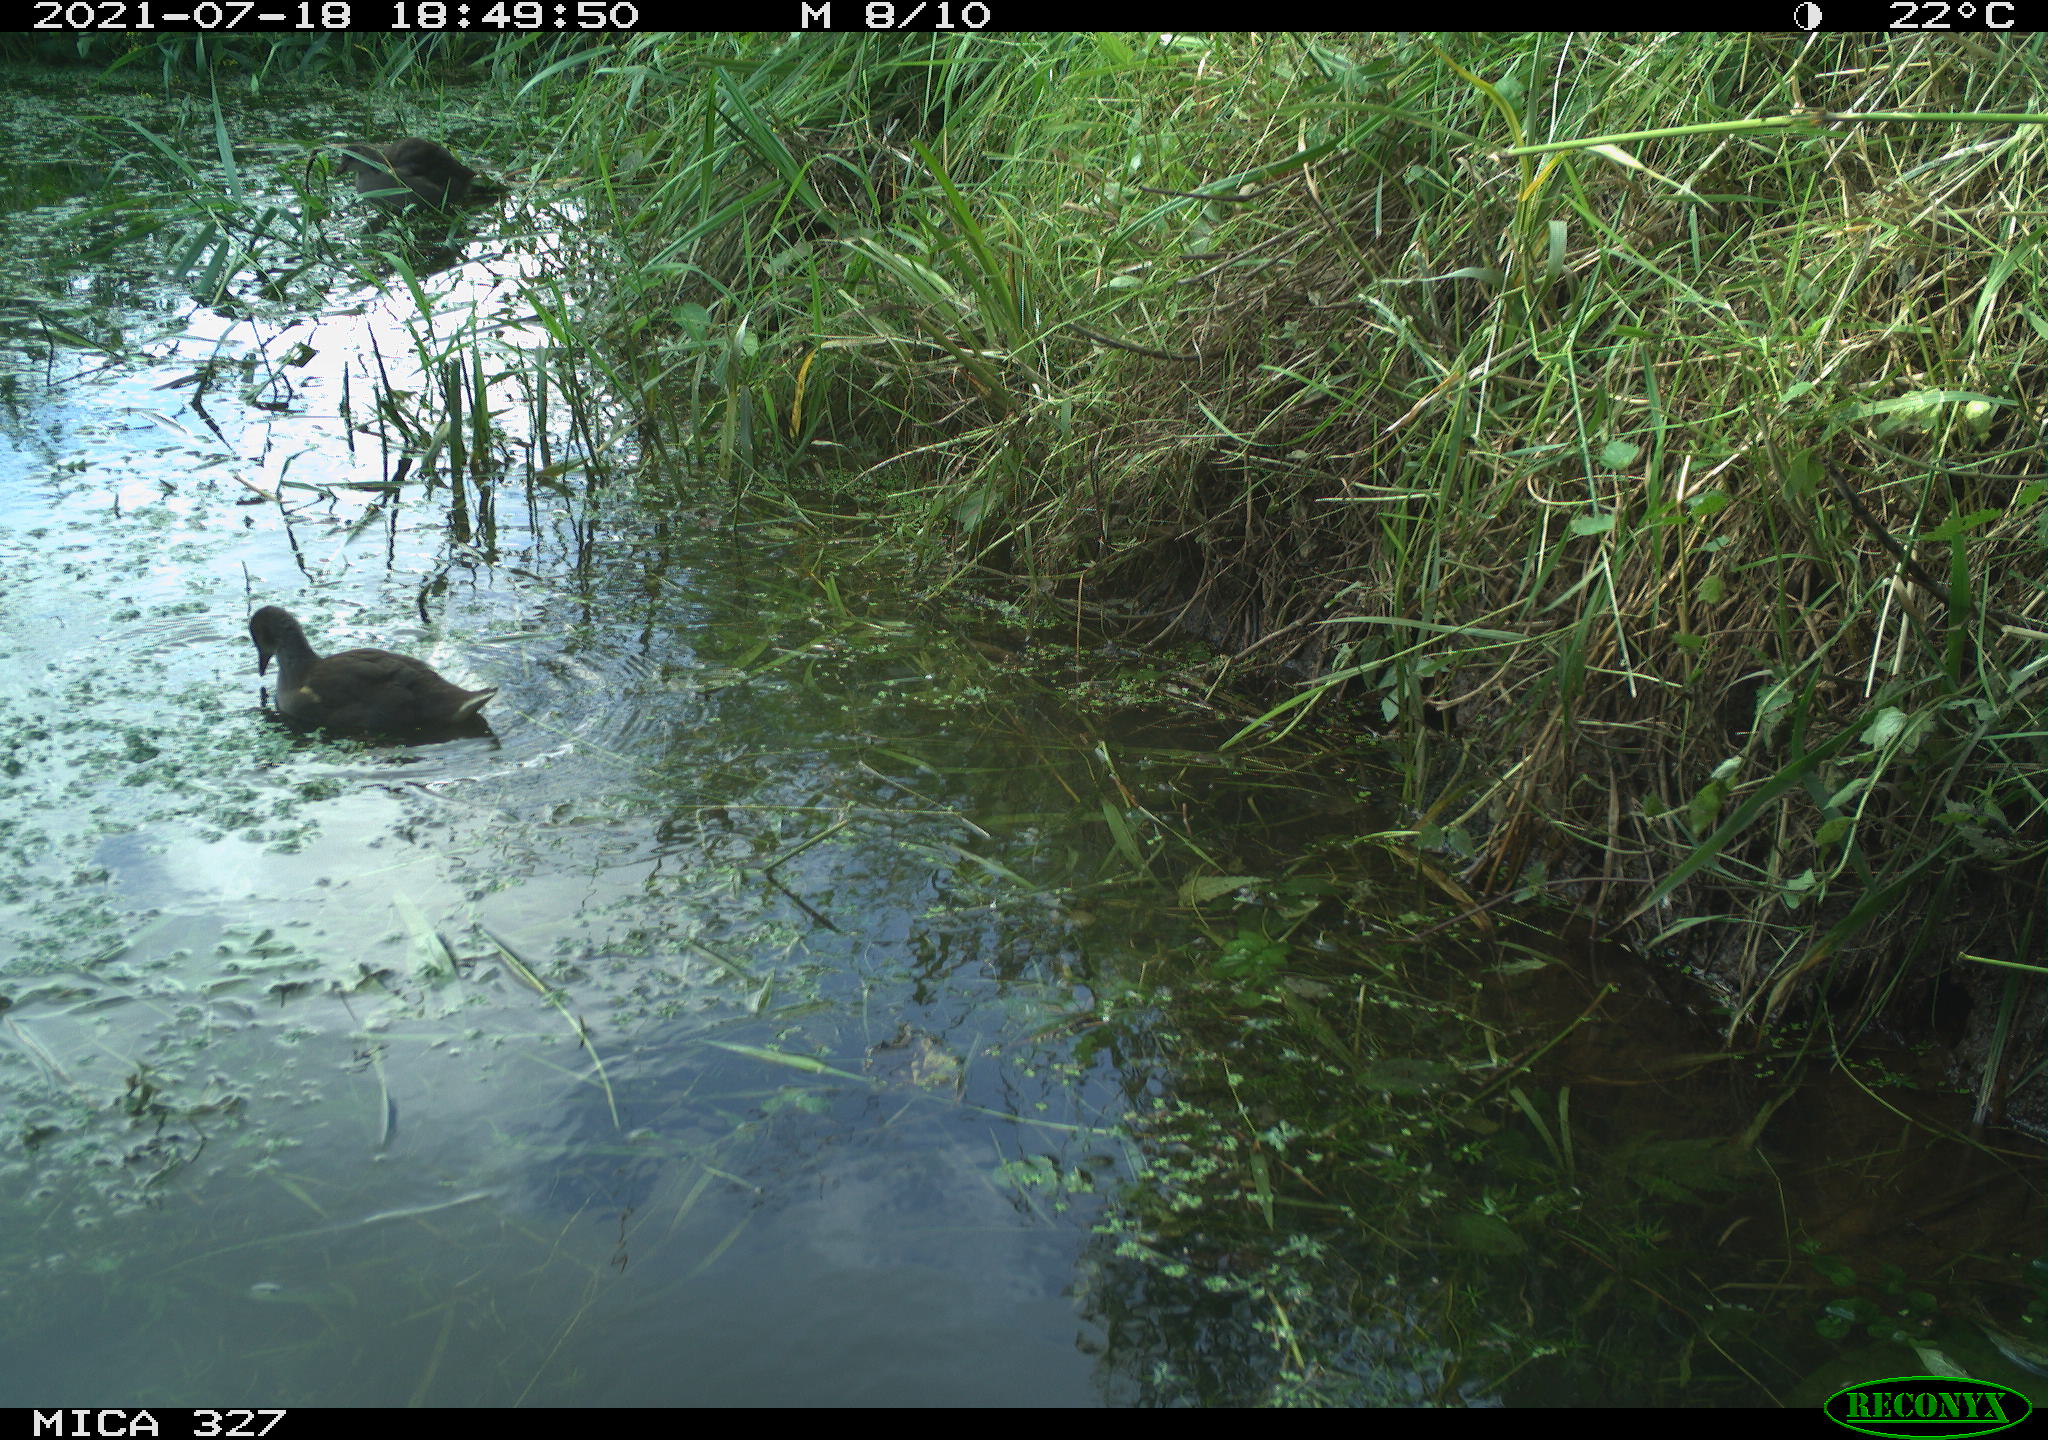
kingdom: Animalia
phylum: Chordata
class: Aves
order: Gruiformes
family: Rallidae
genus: Gallinula
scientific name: Gallinula chloropus
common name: Common moorhen
